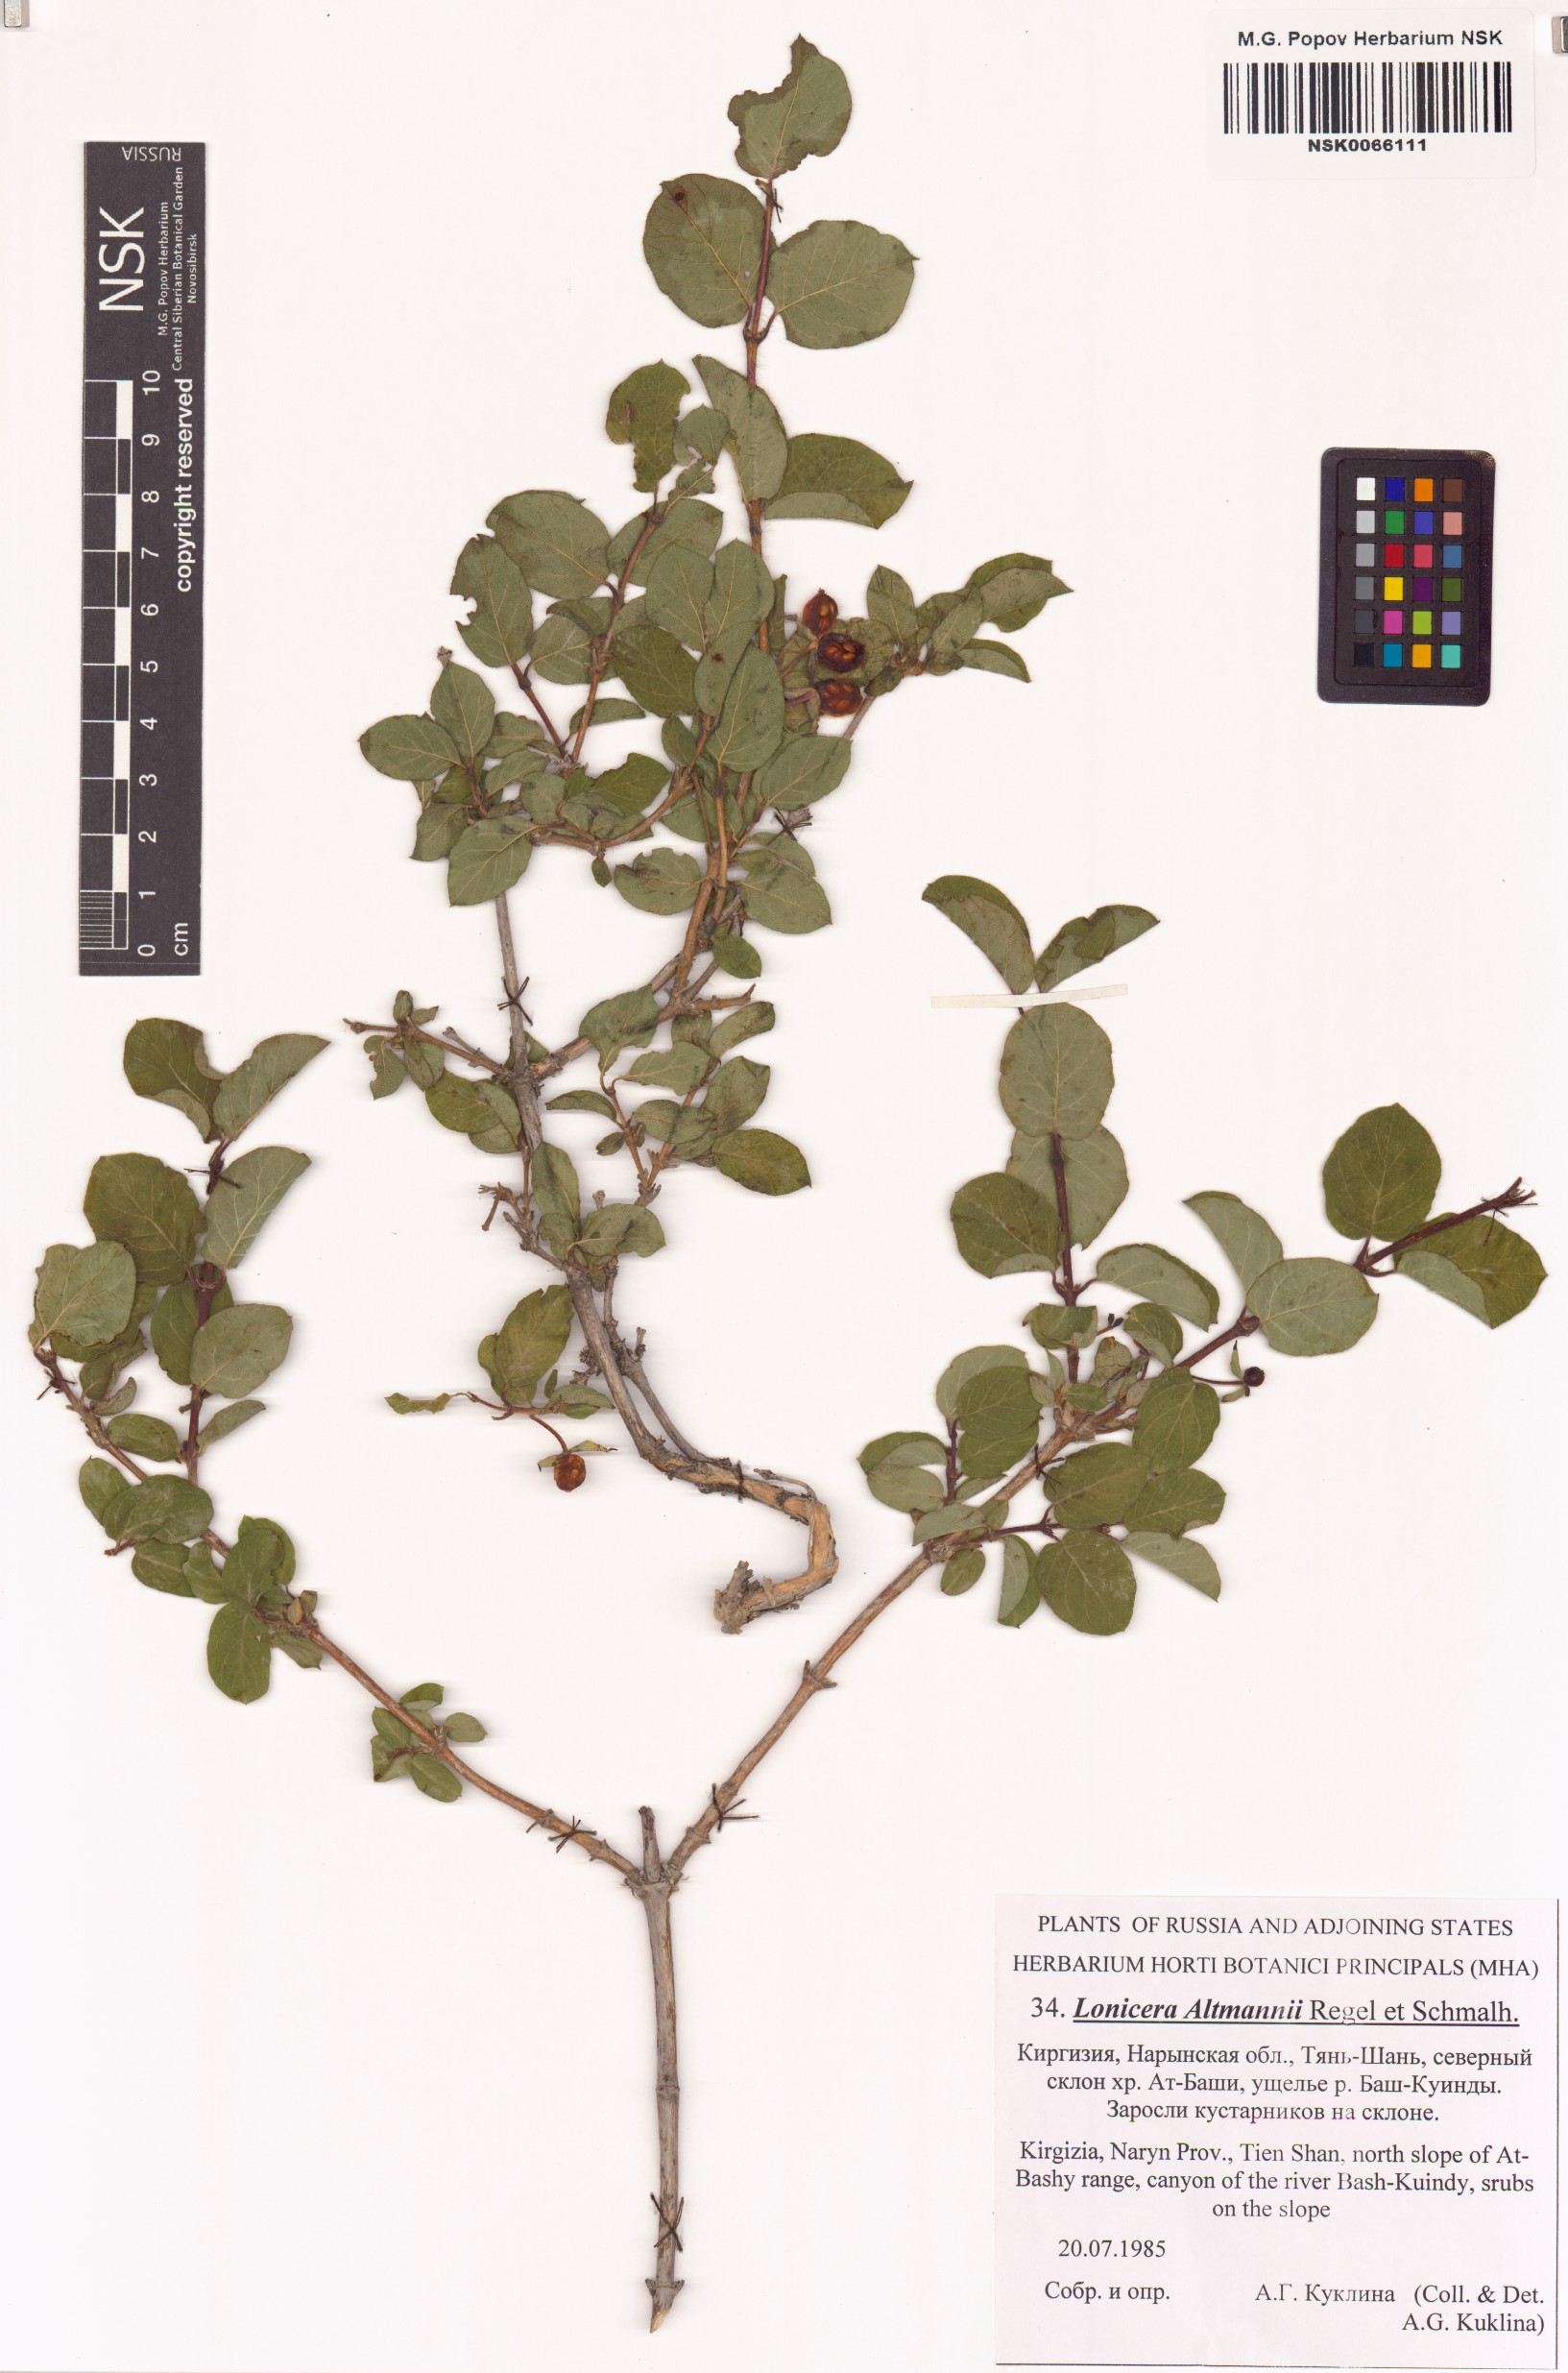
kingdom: Plantae
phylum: Tracheophyta
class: Magnoliopsida
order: Dipsacales
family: Caprifoliaceae
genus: Lonicera
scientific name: Lonicera altmannii
